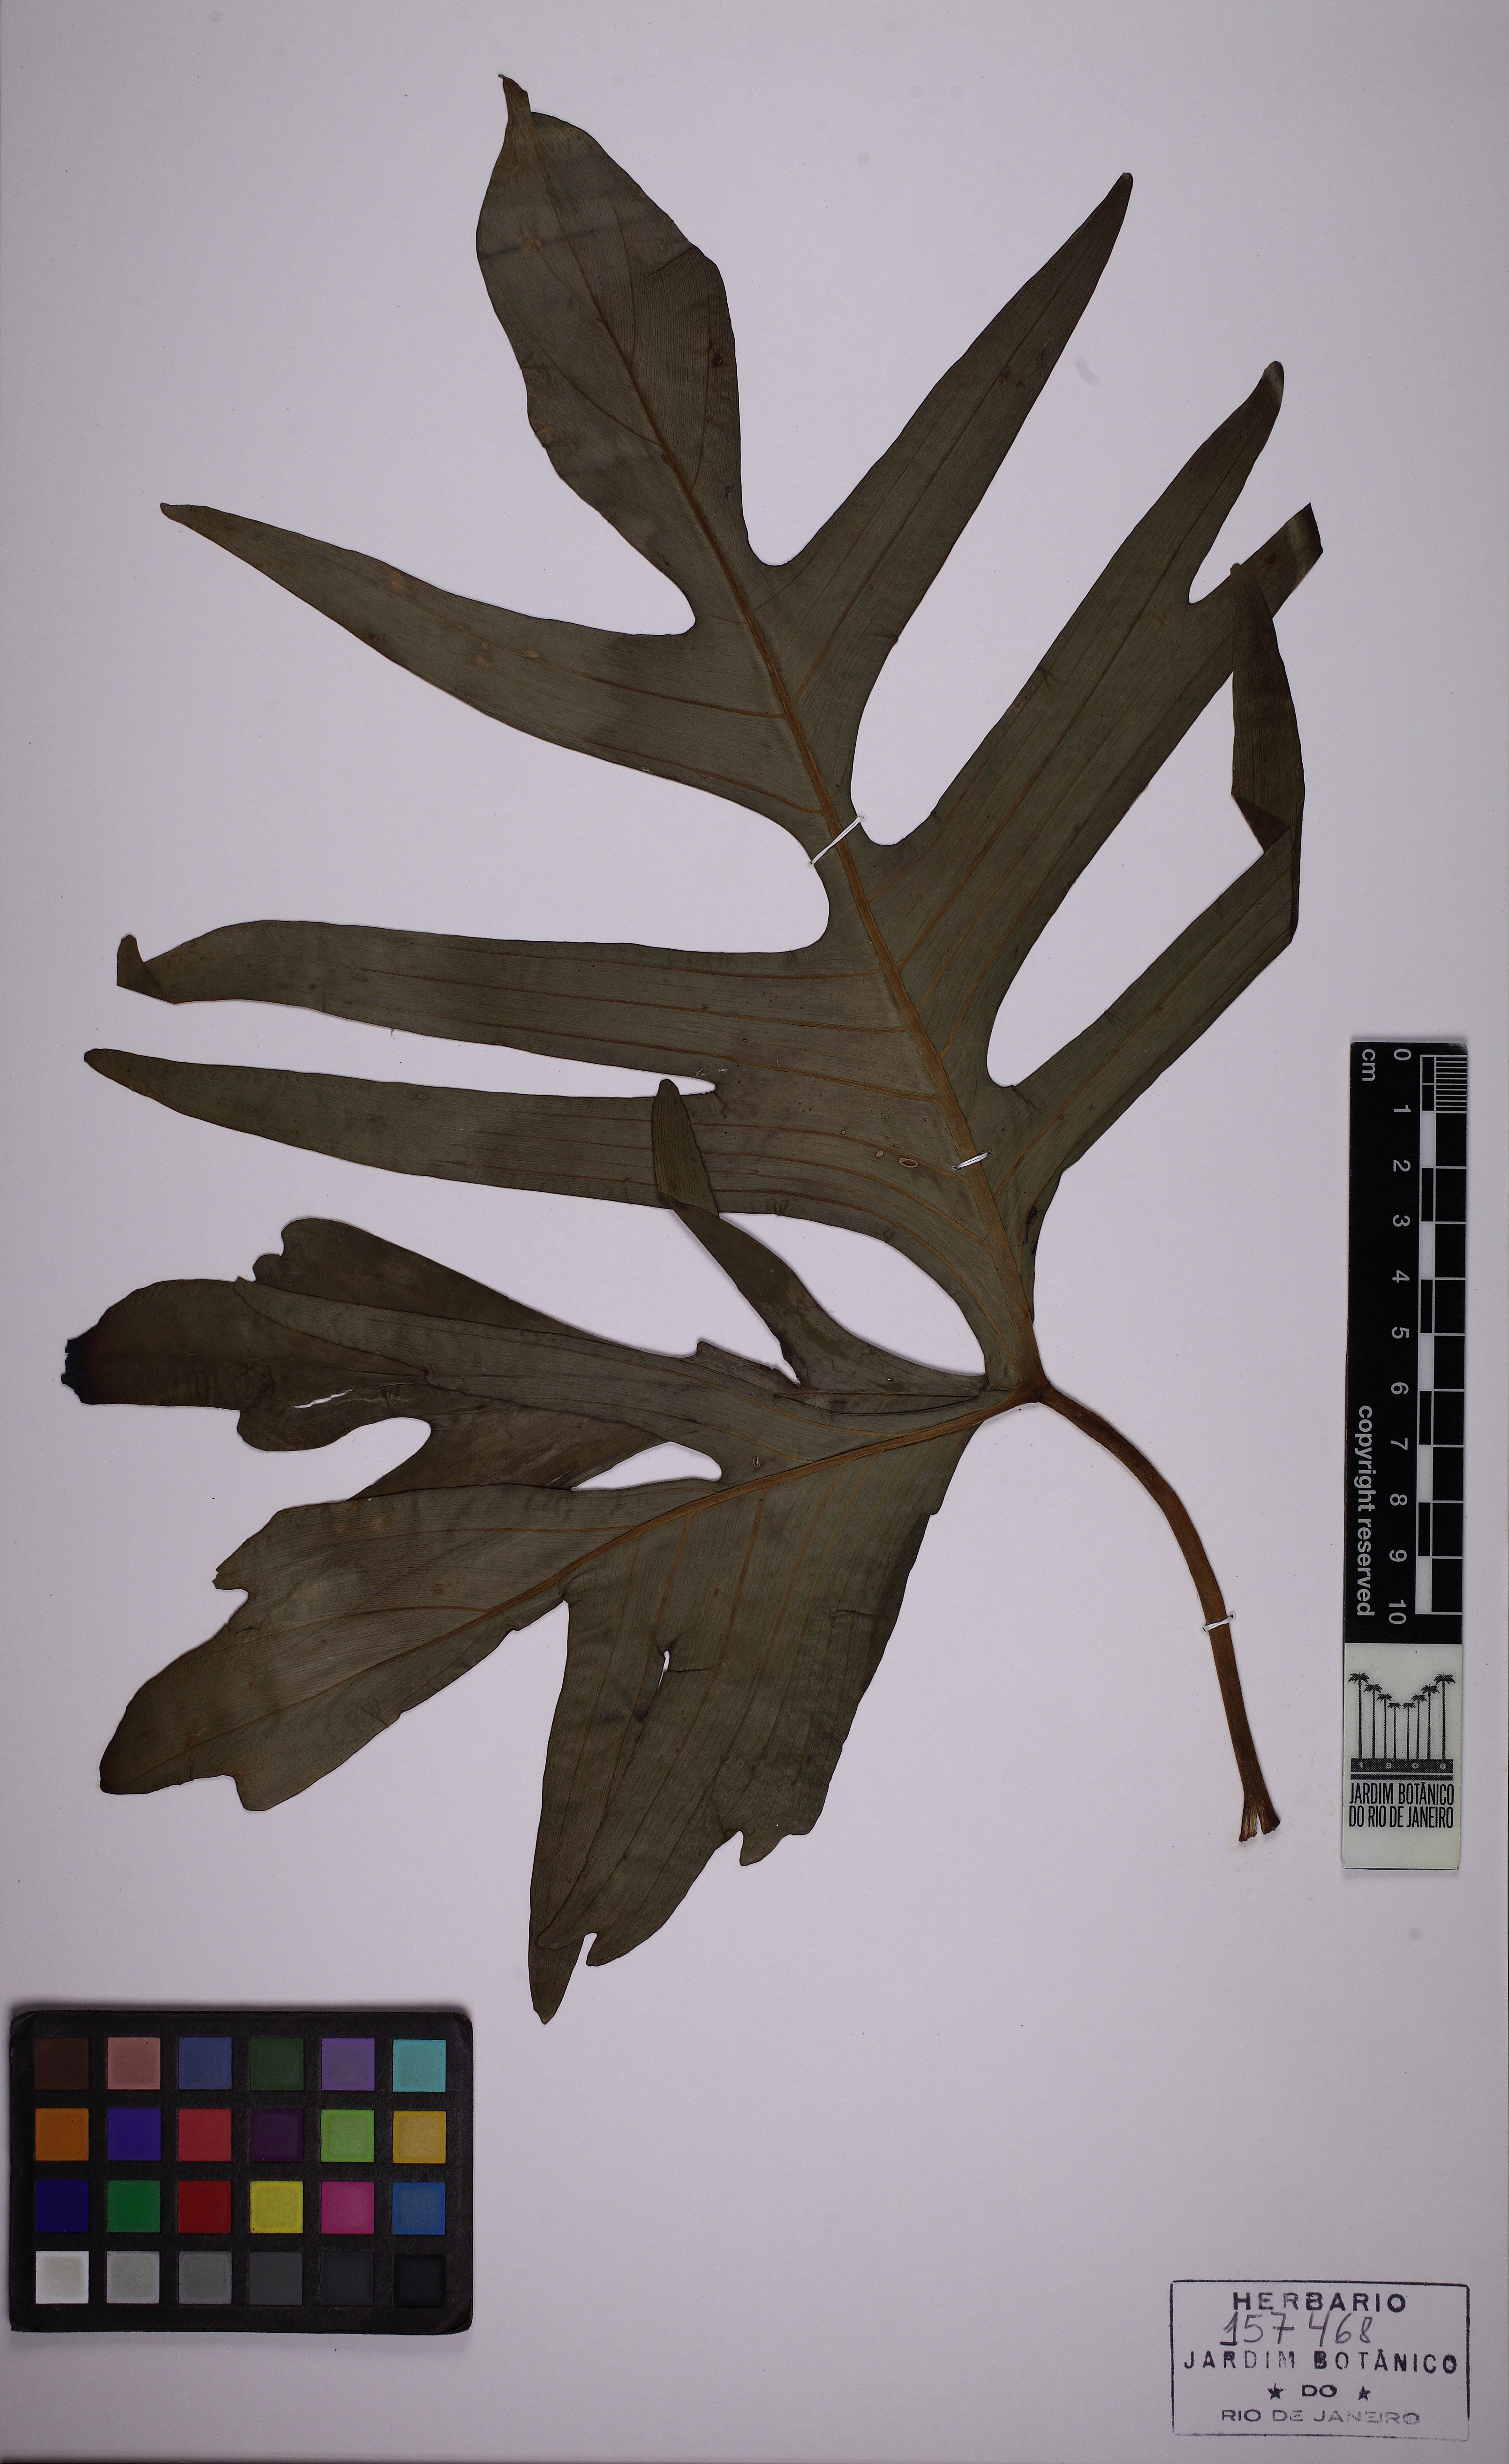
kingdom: Plantae
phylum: Tracheophyta
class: Liliopsida
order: Alismatales
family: Araceae
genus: Philodendron
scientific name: Philodendron pedatum
